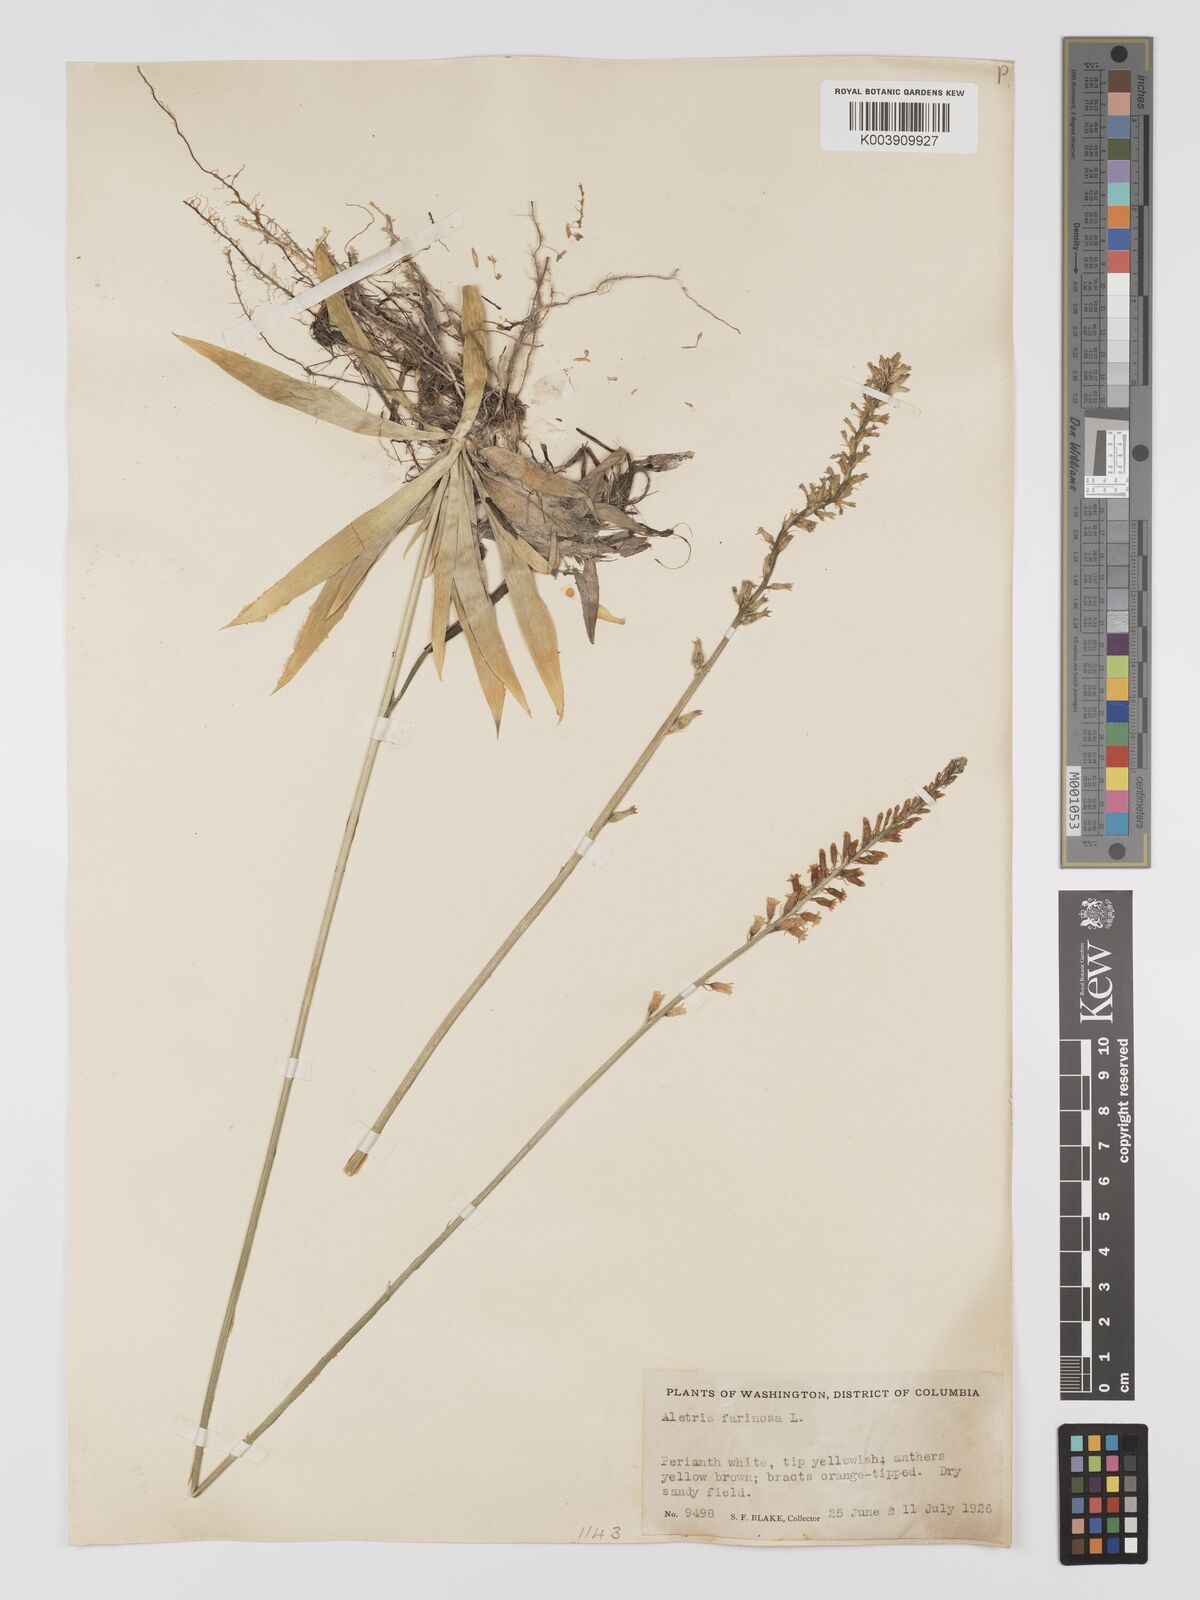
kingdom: Plantae
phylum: Tracheophyta
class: Liliopsida
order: Dioscoreales
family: Nartheciaceae
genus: Aletris
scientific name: Aletris farinosa
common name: Colicroot
